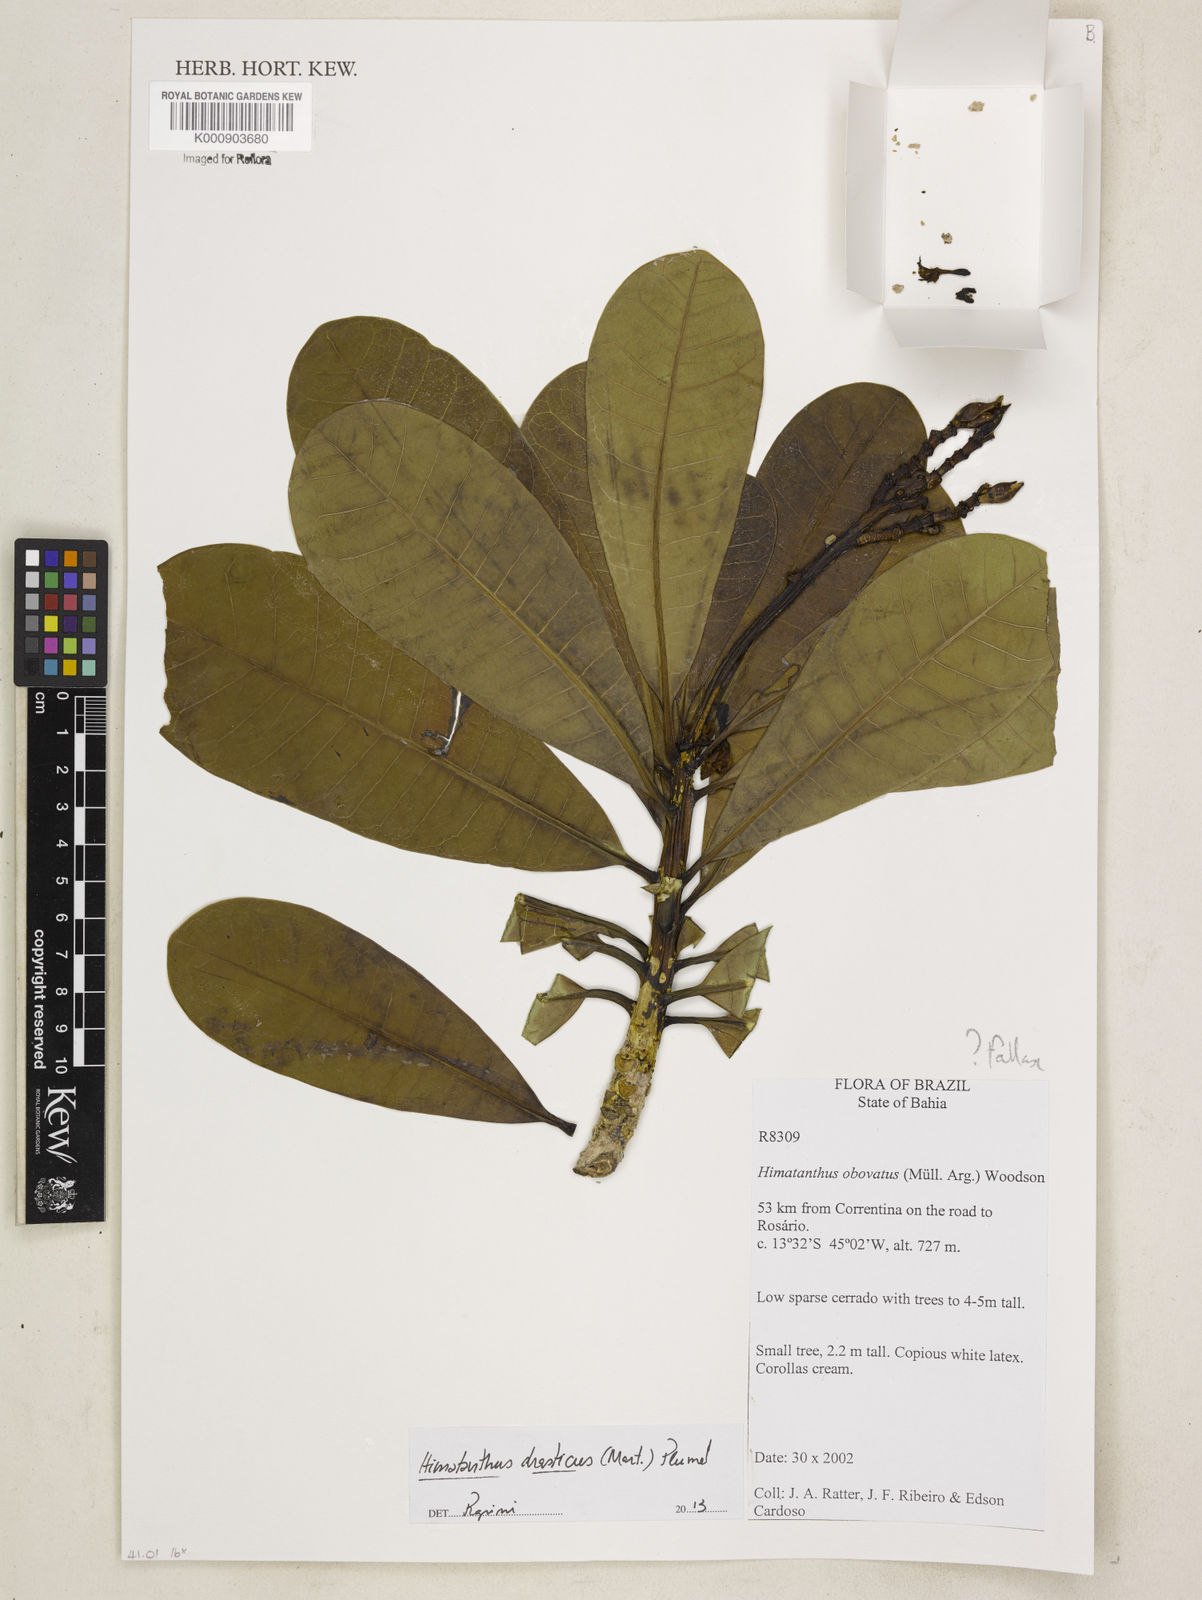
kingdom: Plantae
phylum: Tracheophyta
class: Magnoliopsida
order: Gentianales
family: Apocynaceae
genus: Himatanthus
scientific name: Himatanthus
